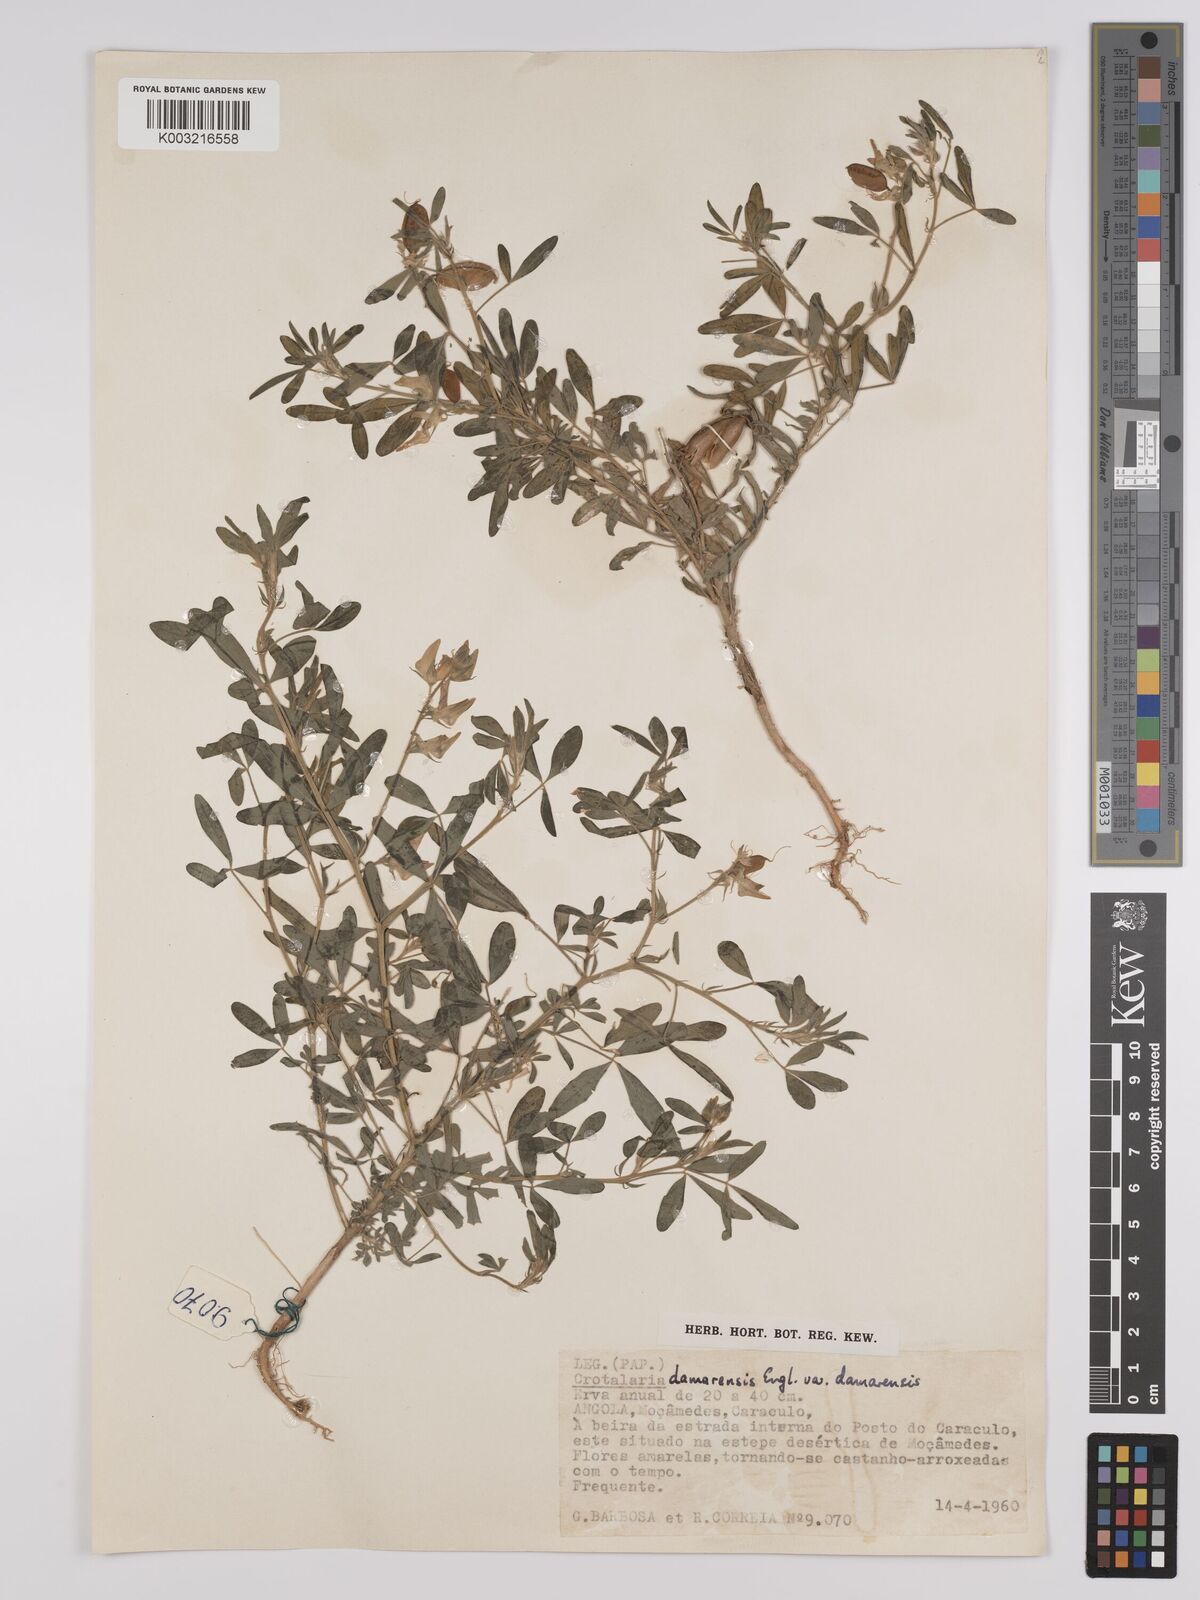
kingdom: Plantae
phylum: Tracheophyta
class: Magnoliopsida
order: Fabales
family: Fabaceae
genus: Crotalaria
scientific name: Crotalaria damarensis
